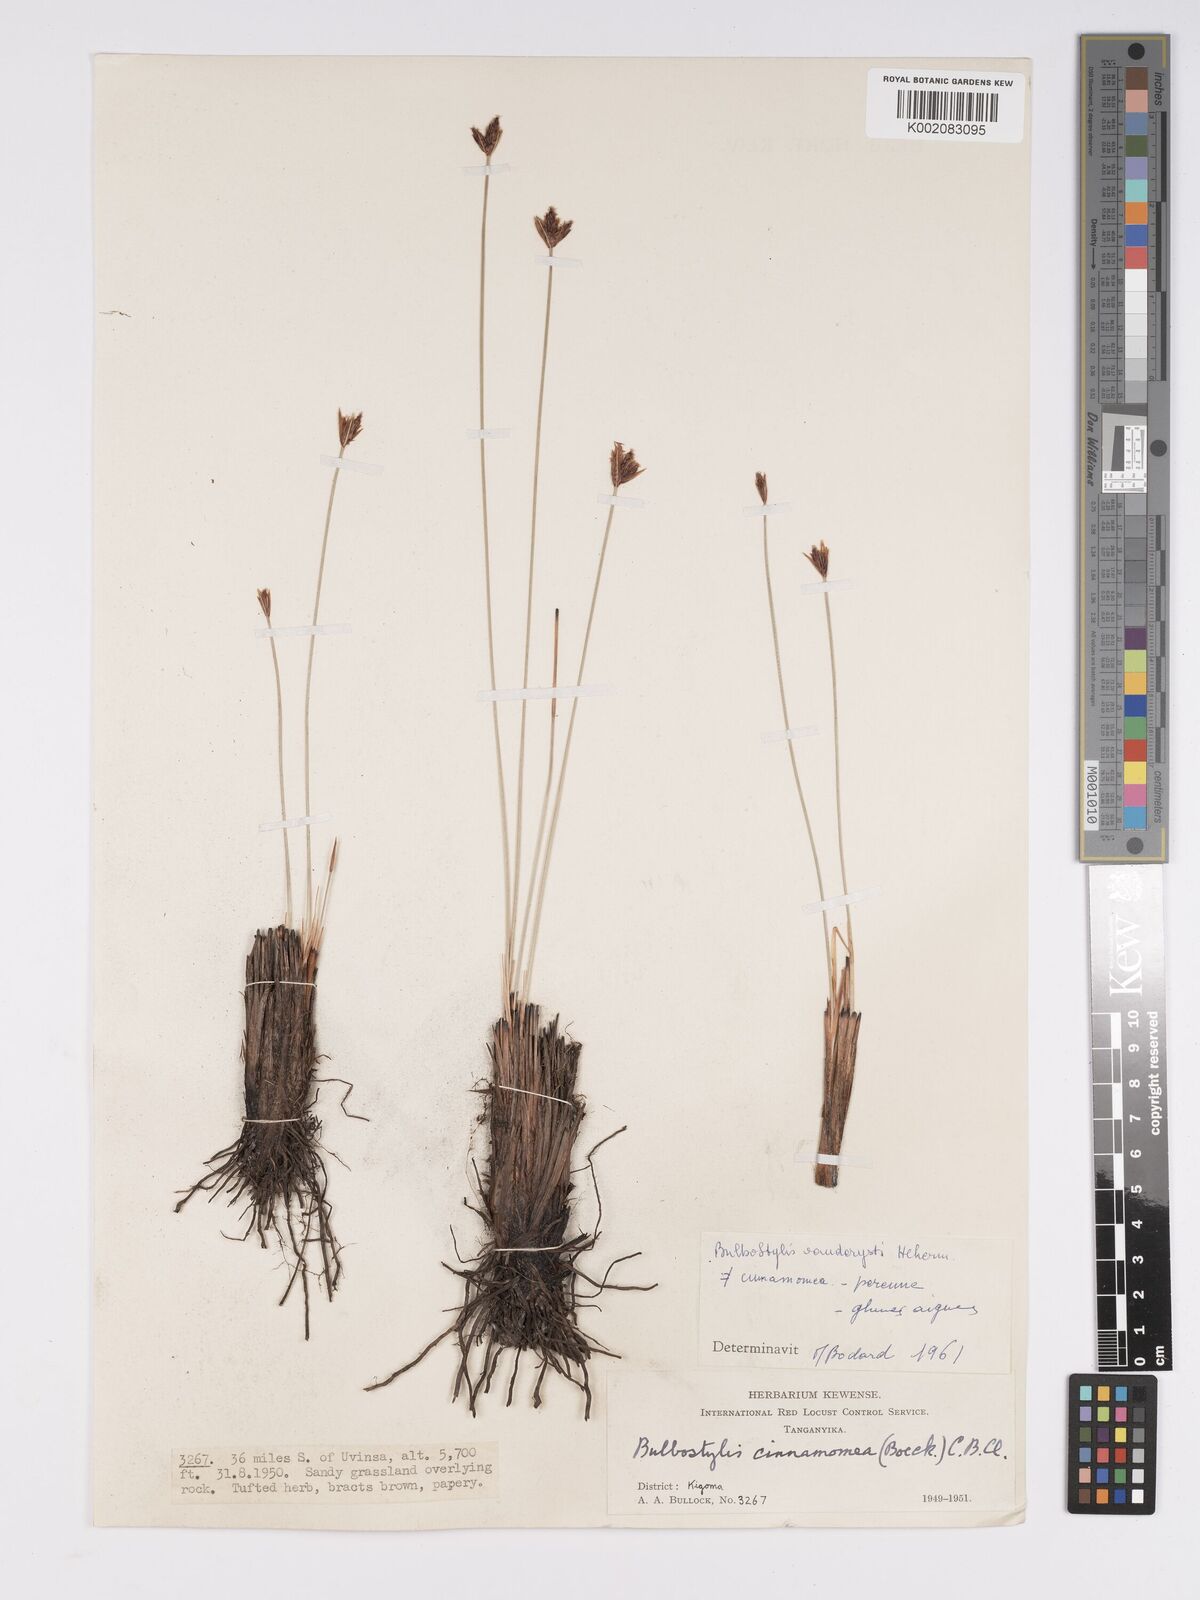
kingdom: Plantae
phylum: Tracheophyta
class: Liliopsida
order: Poales
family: Cyperaceae
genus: Bulbostylis
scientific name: Bulbostylis vanderystii
